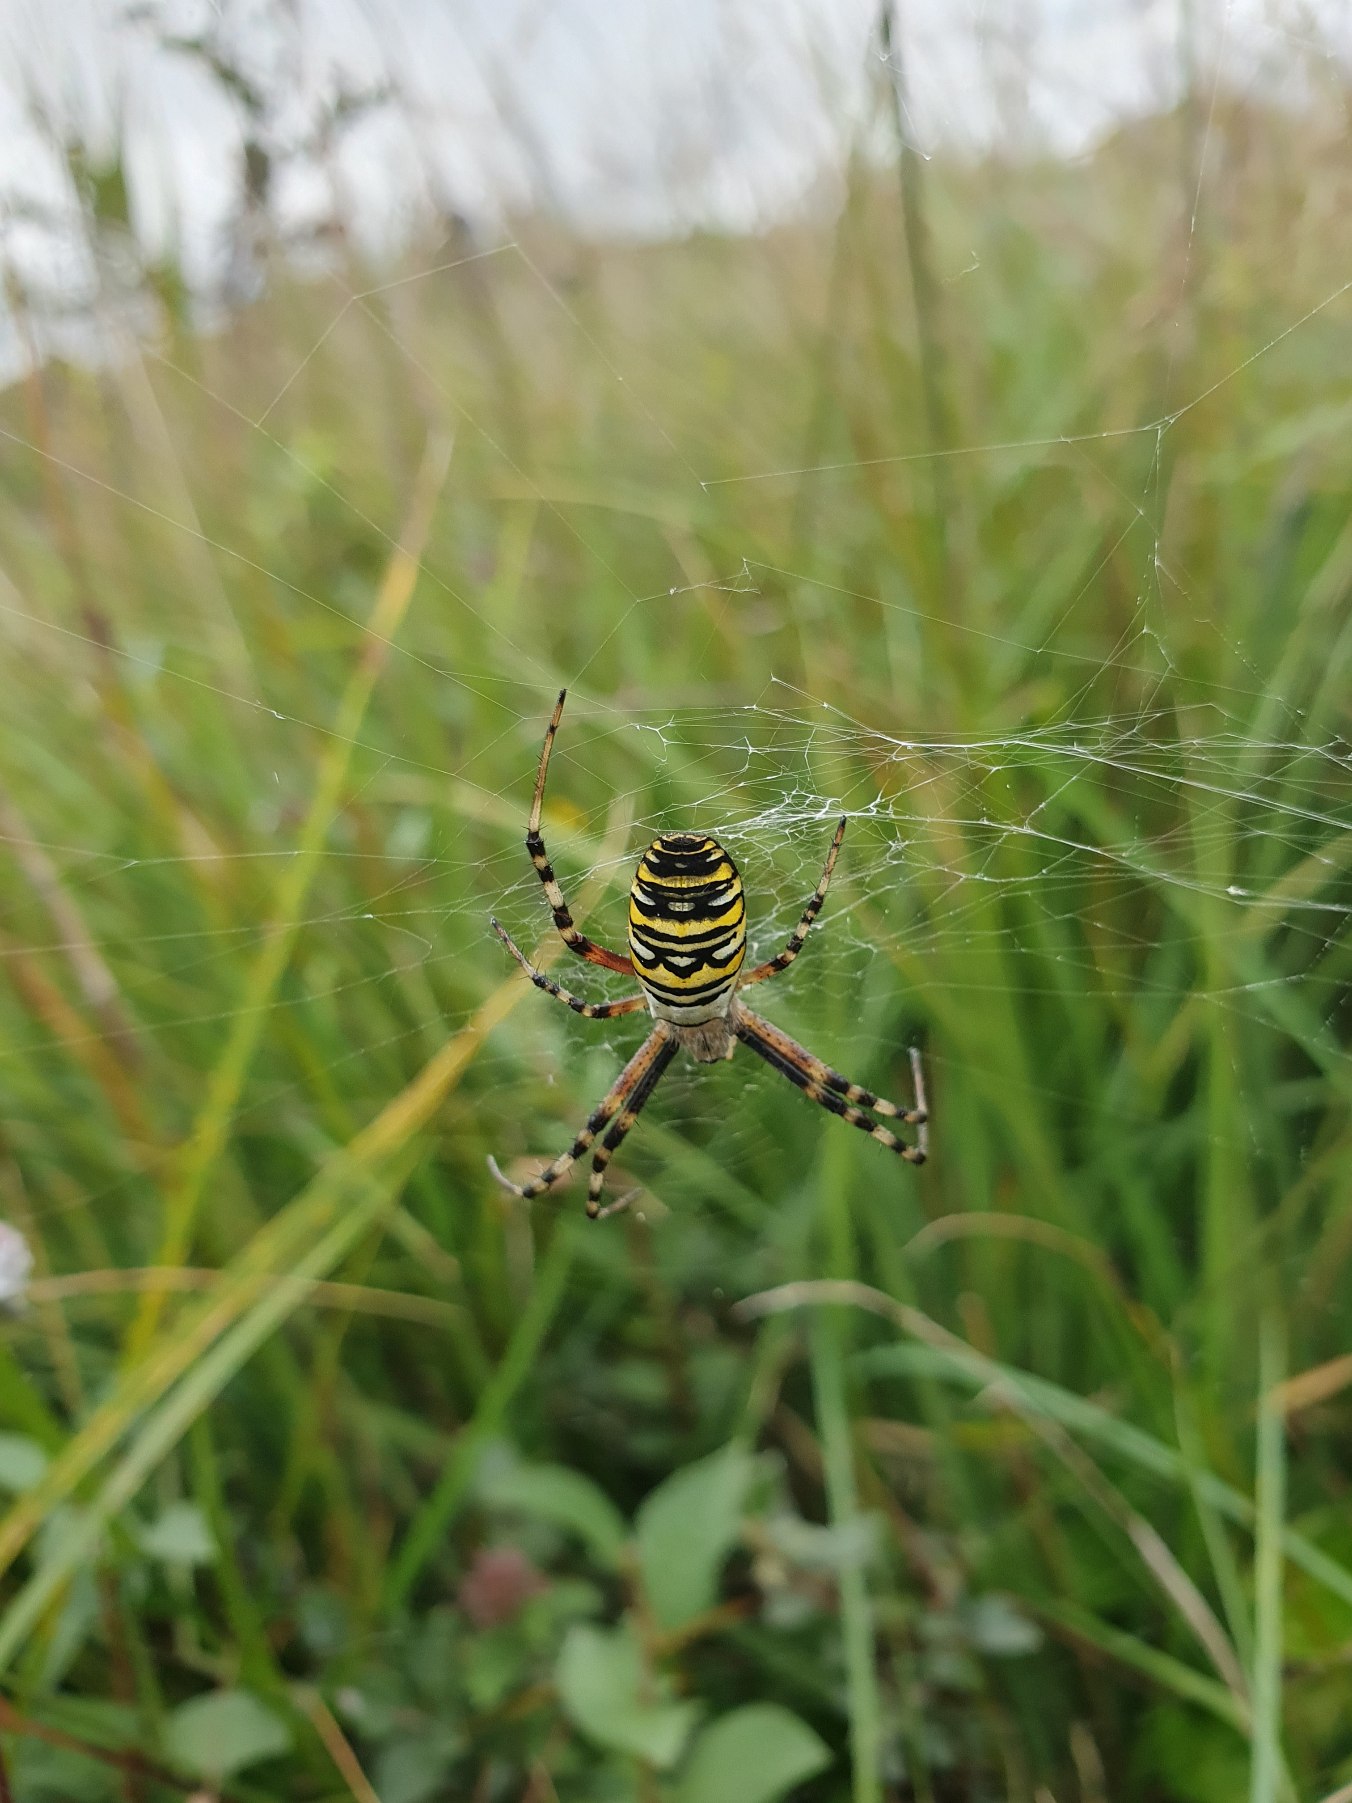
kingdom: Animalia
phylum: Arthropoda
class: Arachnida
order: Araneae
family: Araneidae
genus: Argiope
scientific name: Argiope bruennichi
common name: Hvepseedderkop
